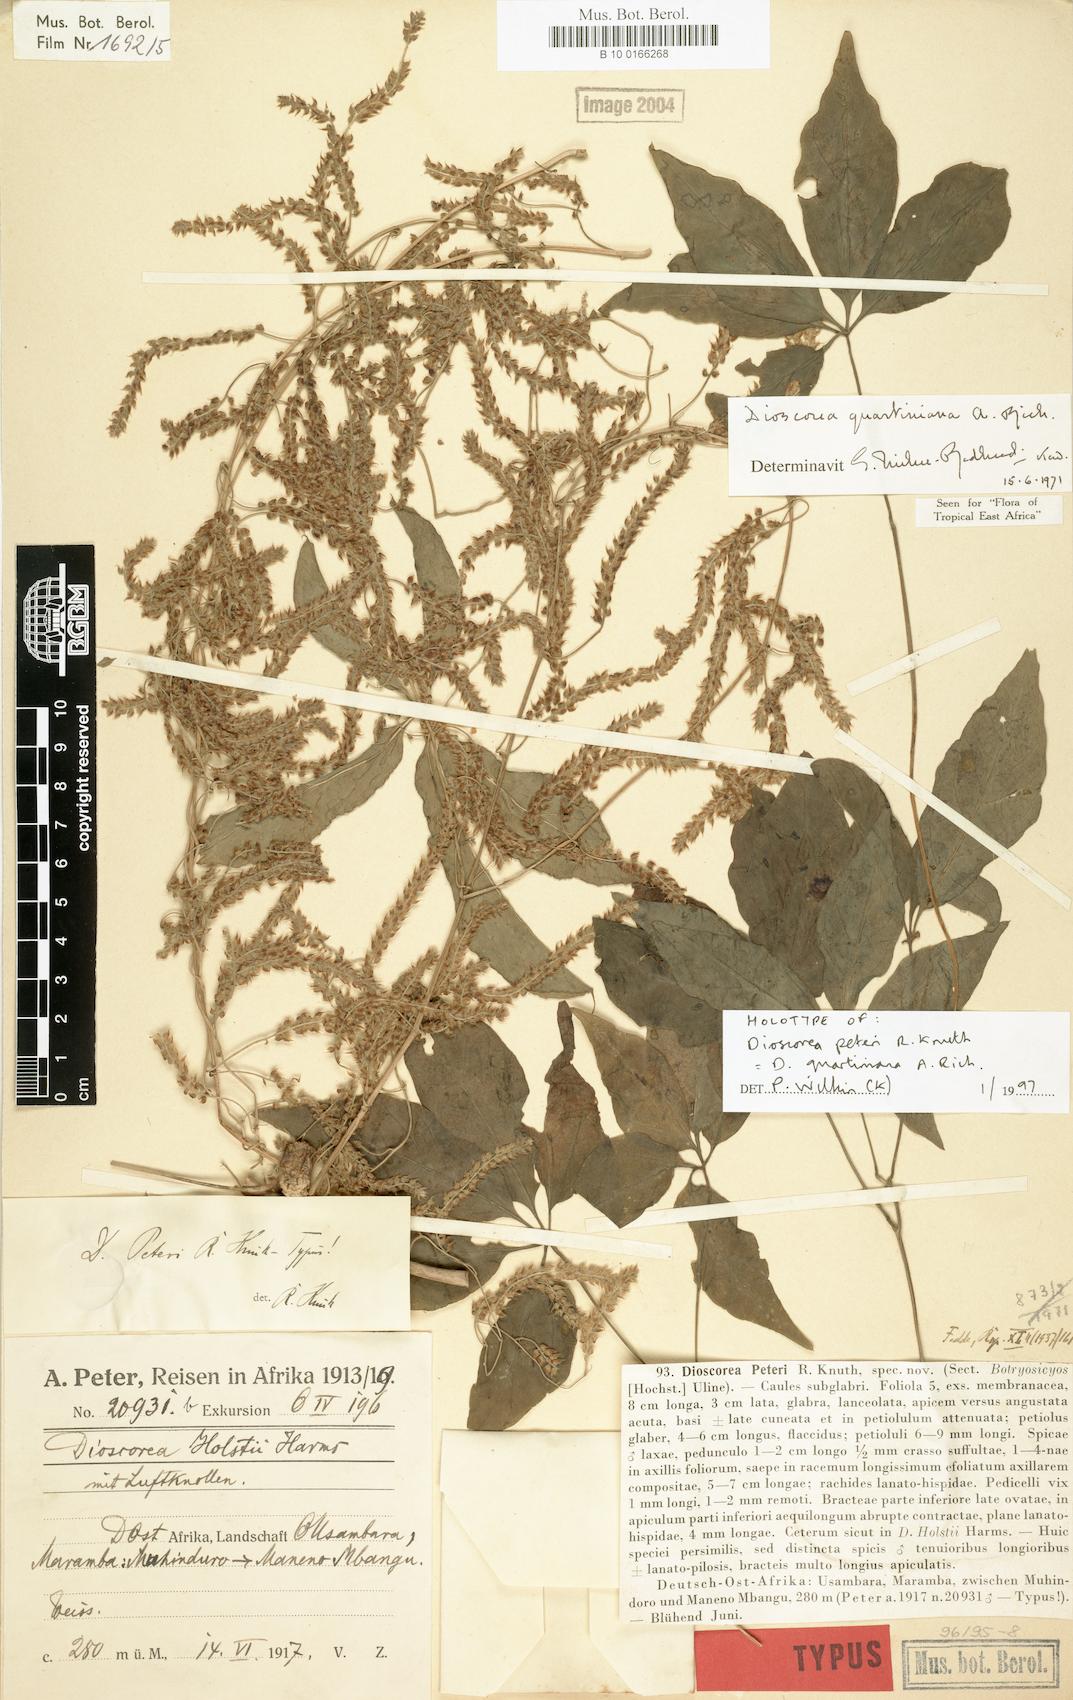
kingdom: Plantae
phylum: Tracheophyta
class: Liliopsida
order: Dioscoreales
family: Dioscoreaceae
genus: Dioscorea
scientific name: Dioscorea quartiniana
